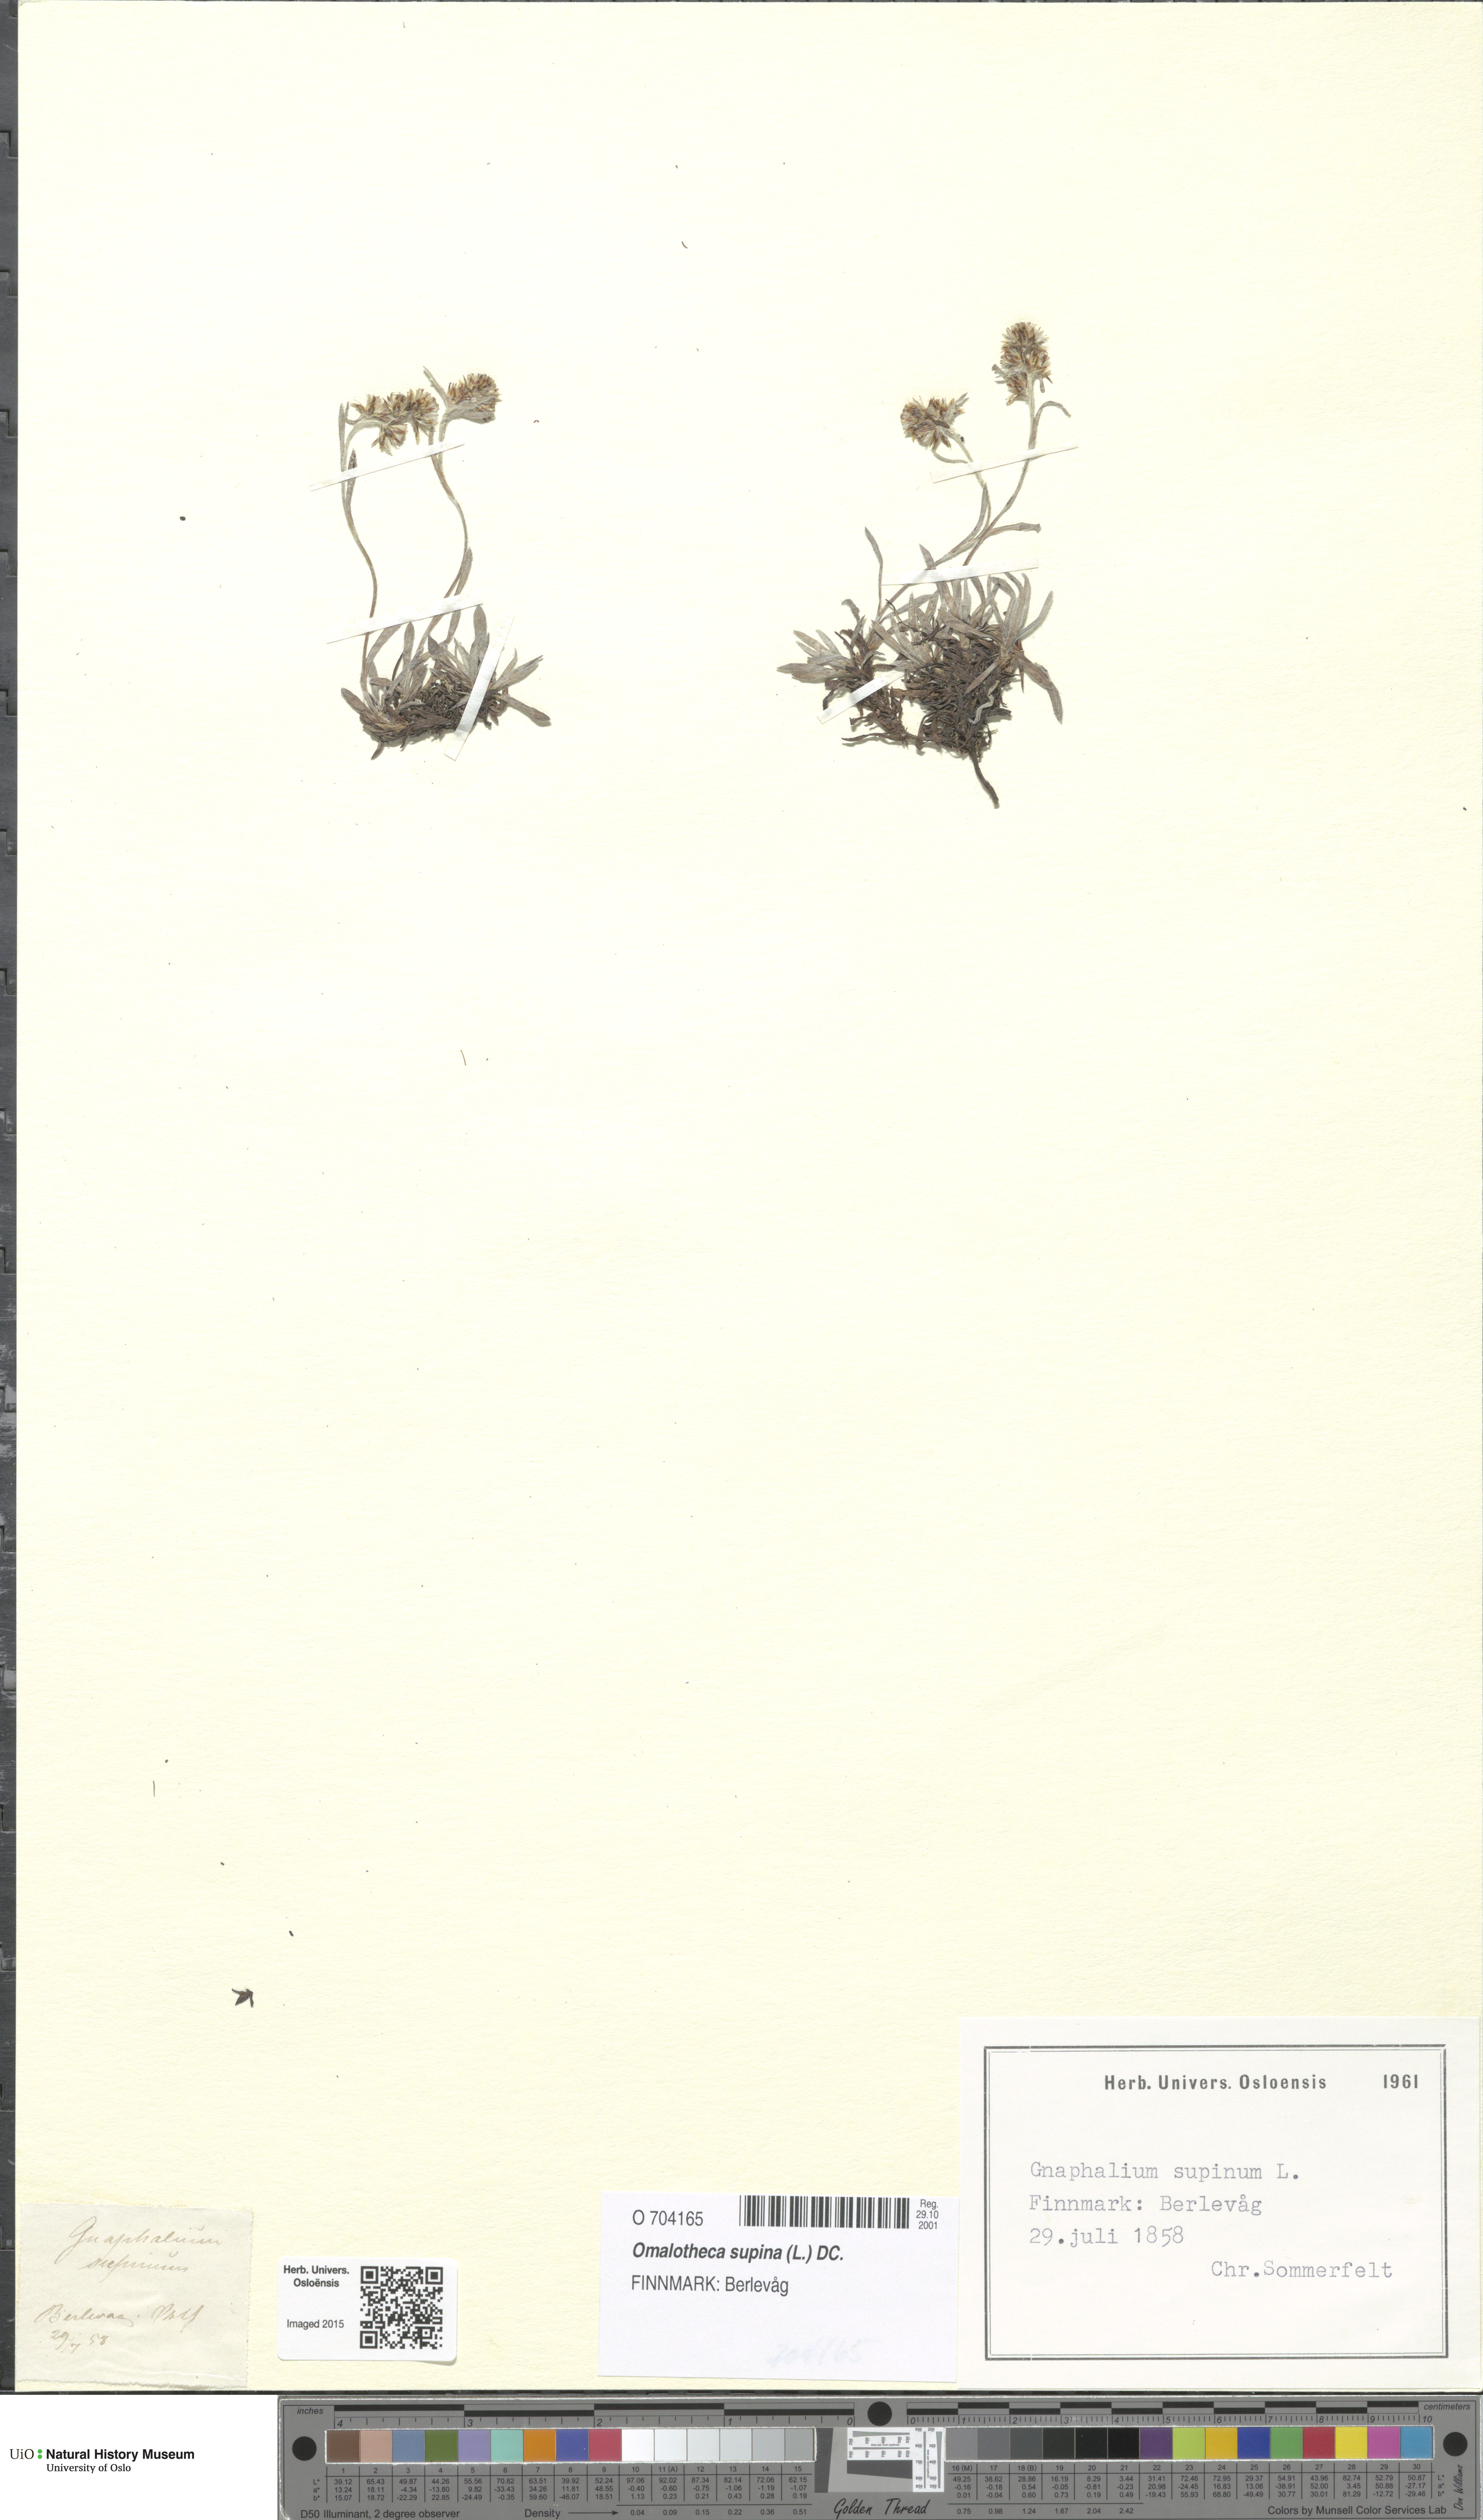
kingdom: Plantae
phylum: Tracheophyta
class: Magnoliopsida
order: Asterales
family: Asteraceae
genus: Omalotheca
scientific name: Omalotheca supina
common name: Alpine arctic-cudweed
